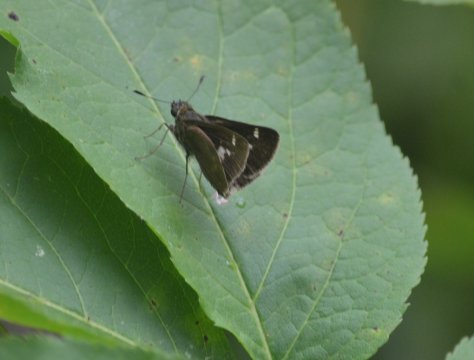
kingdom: Animalia
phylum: Arthropoda
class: Insecta
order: Lepidoptera
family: Hesperiidae
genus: Vernia
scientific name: Vernia verna
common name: Little Glassywing
